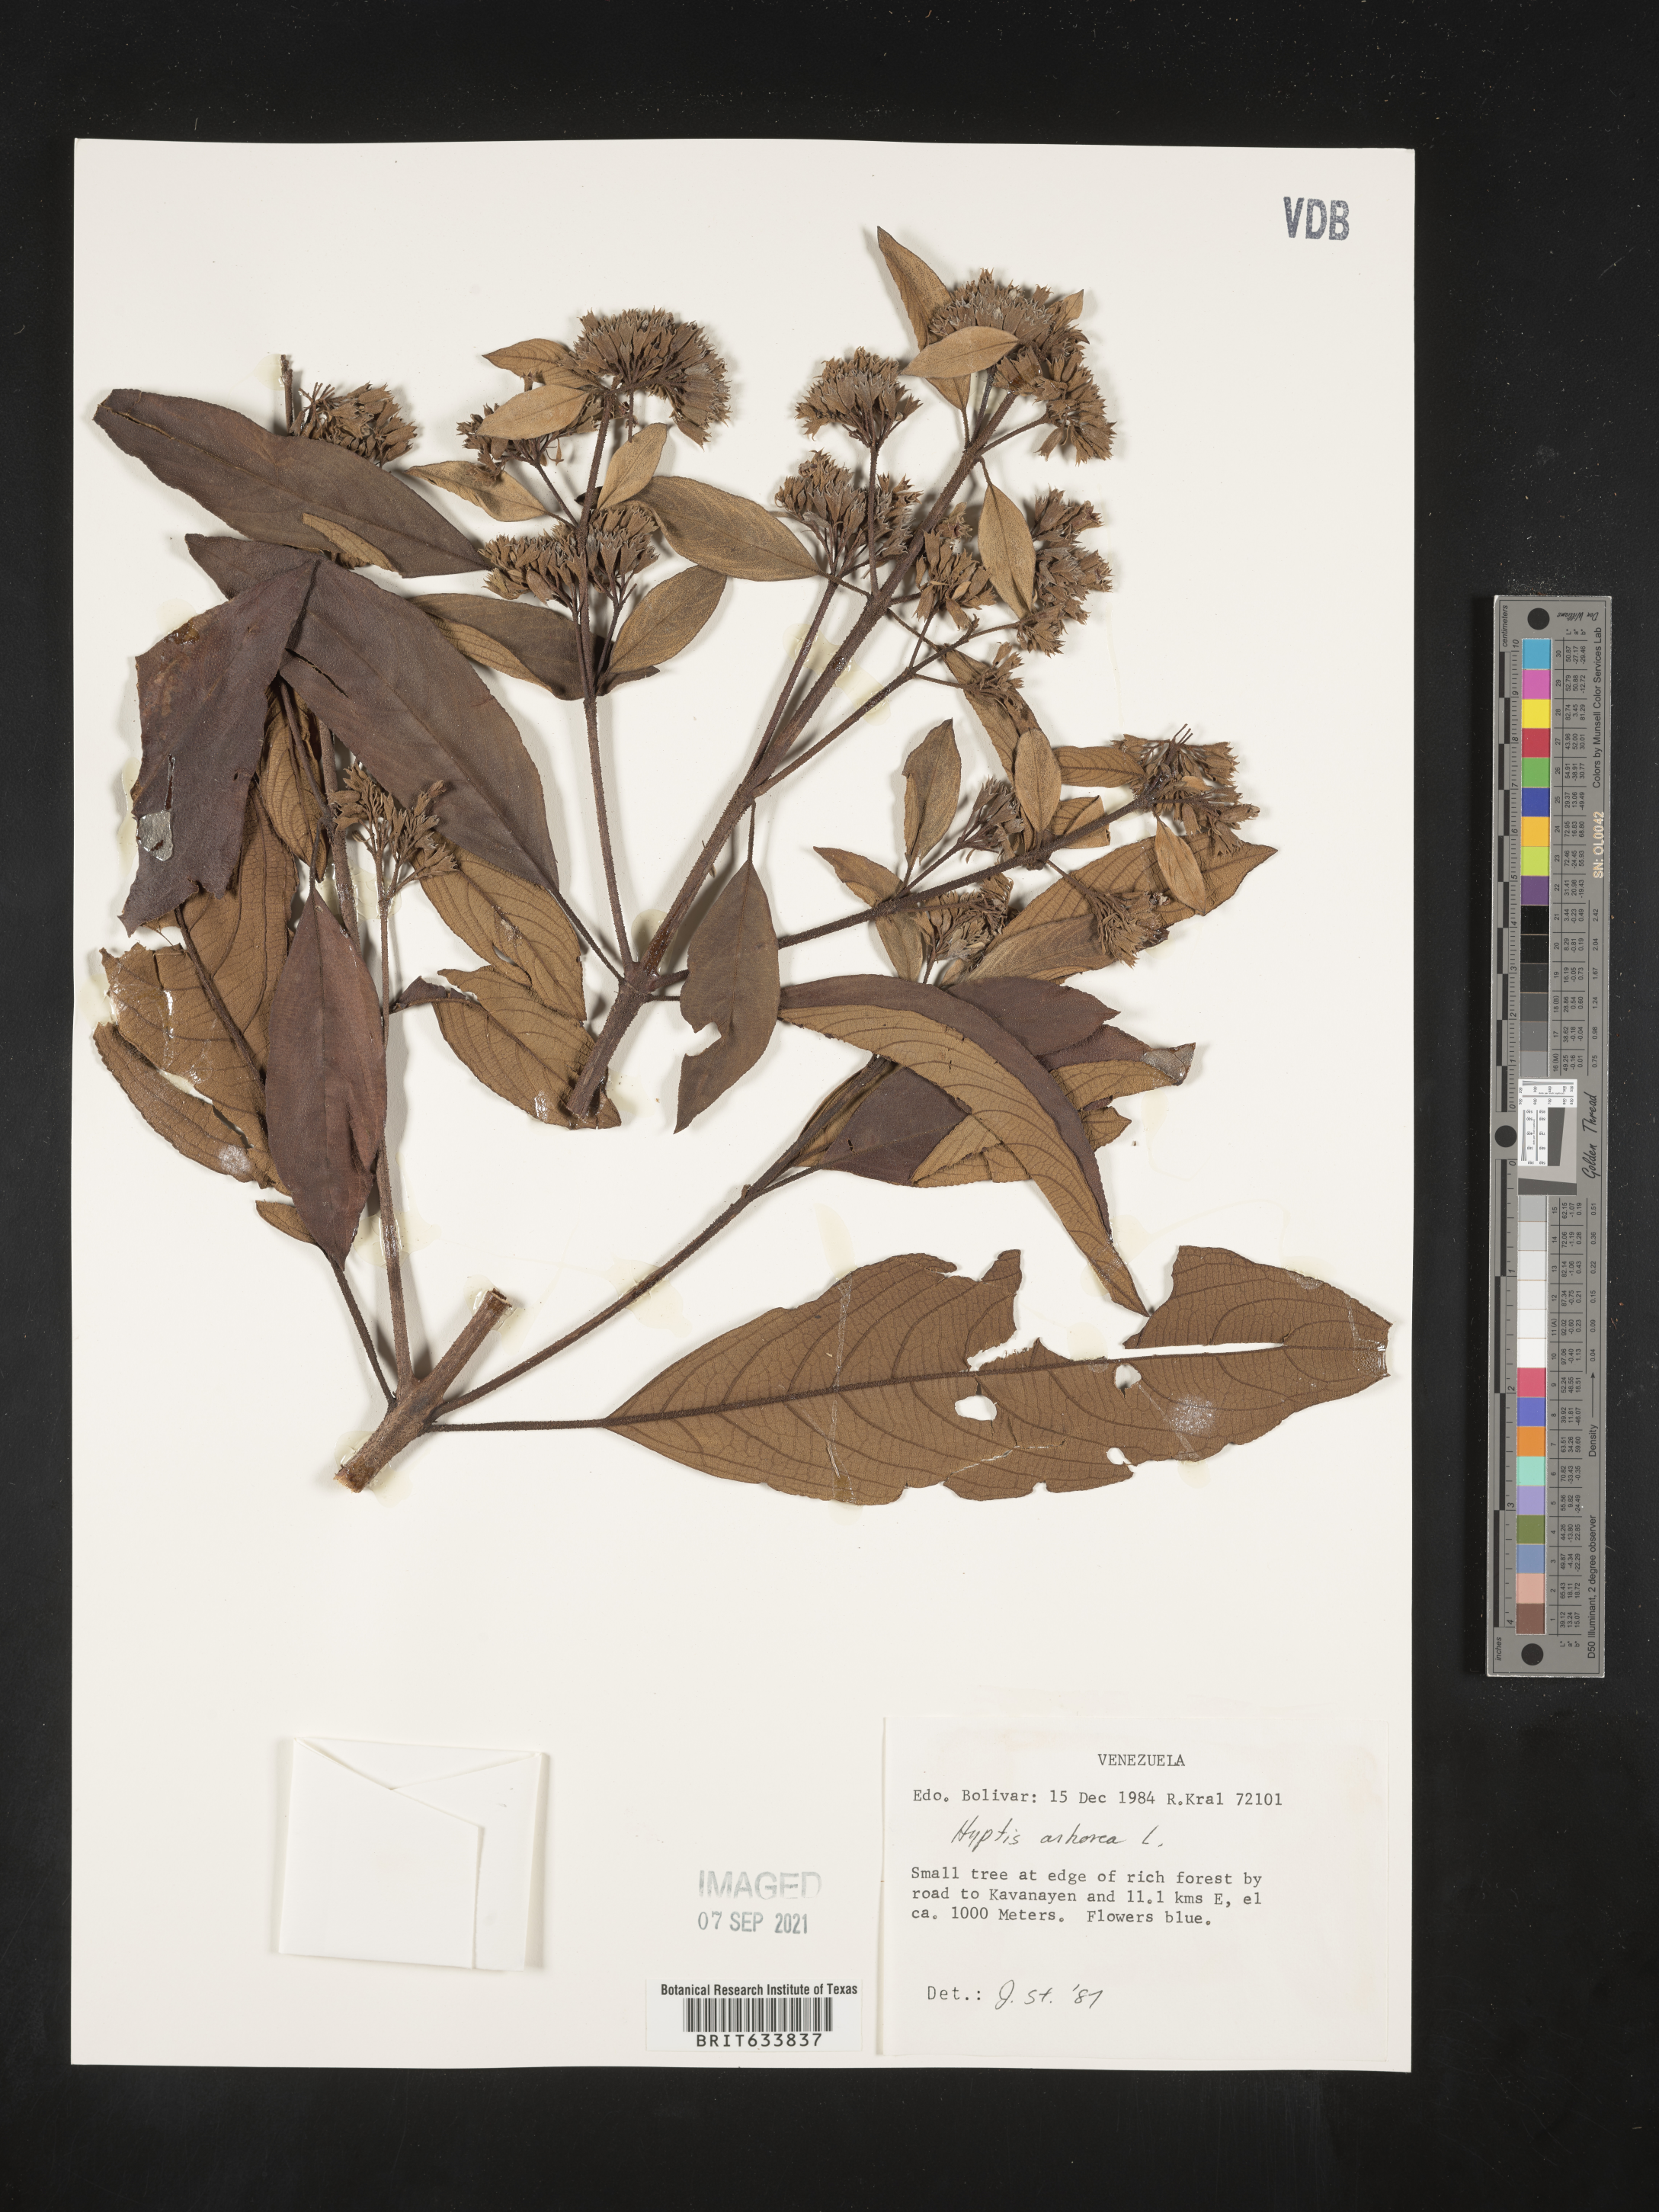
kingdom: Plantae
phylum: Tracheophyta
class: Magnoliopsida
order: Lamiales
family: Lamiaceae
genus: Hyptis
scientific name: Hyptis
